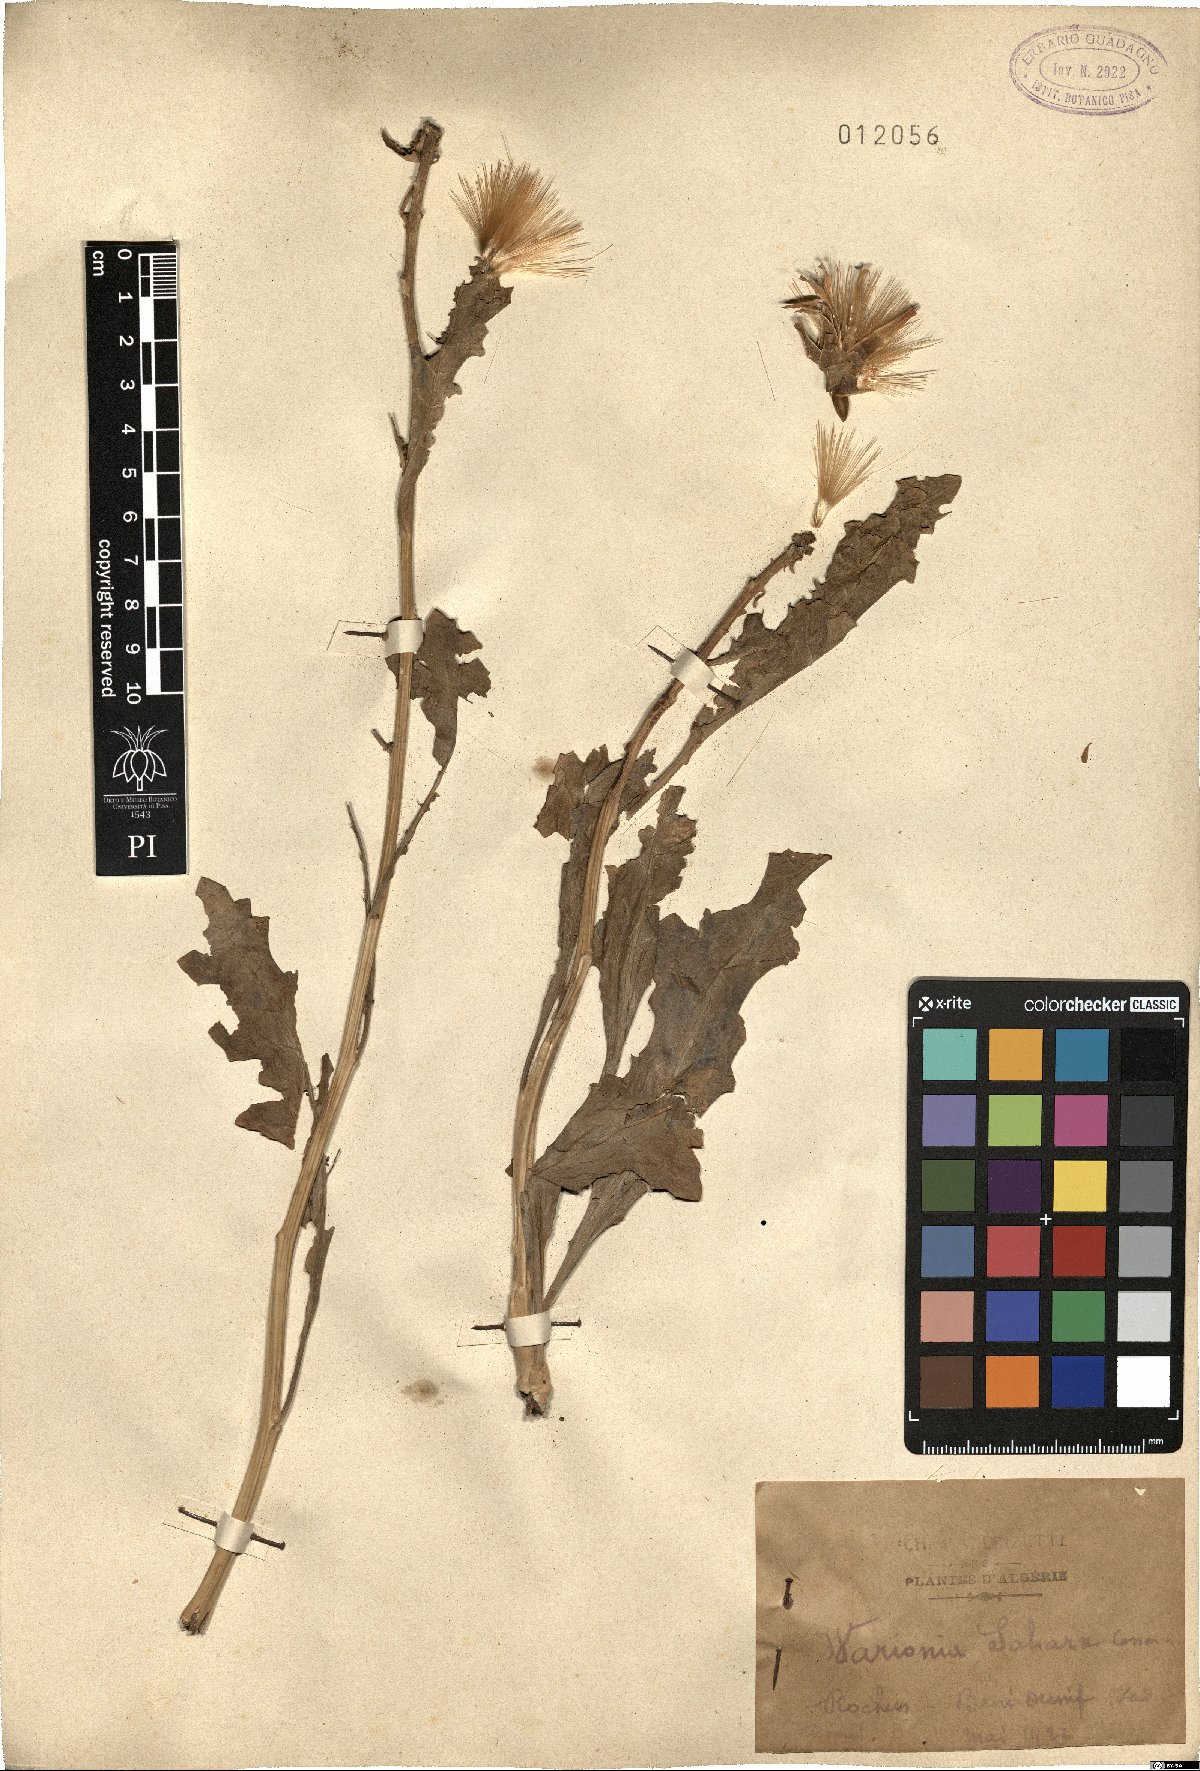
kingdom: Plantae
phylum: Tracheophyta
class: Magnoliopsida
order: Asterales
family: Asteraceae
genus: Warionia
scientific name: Warionia saharae
